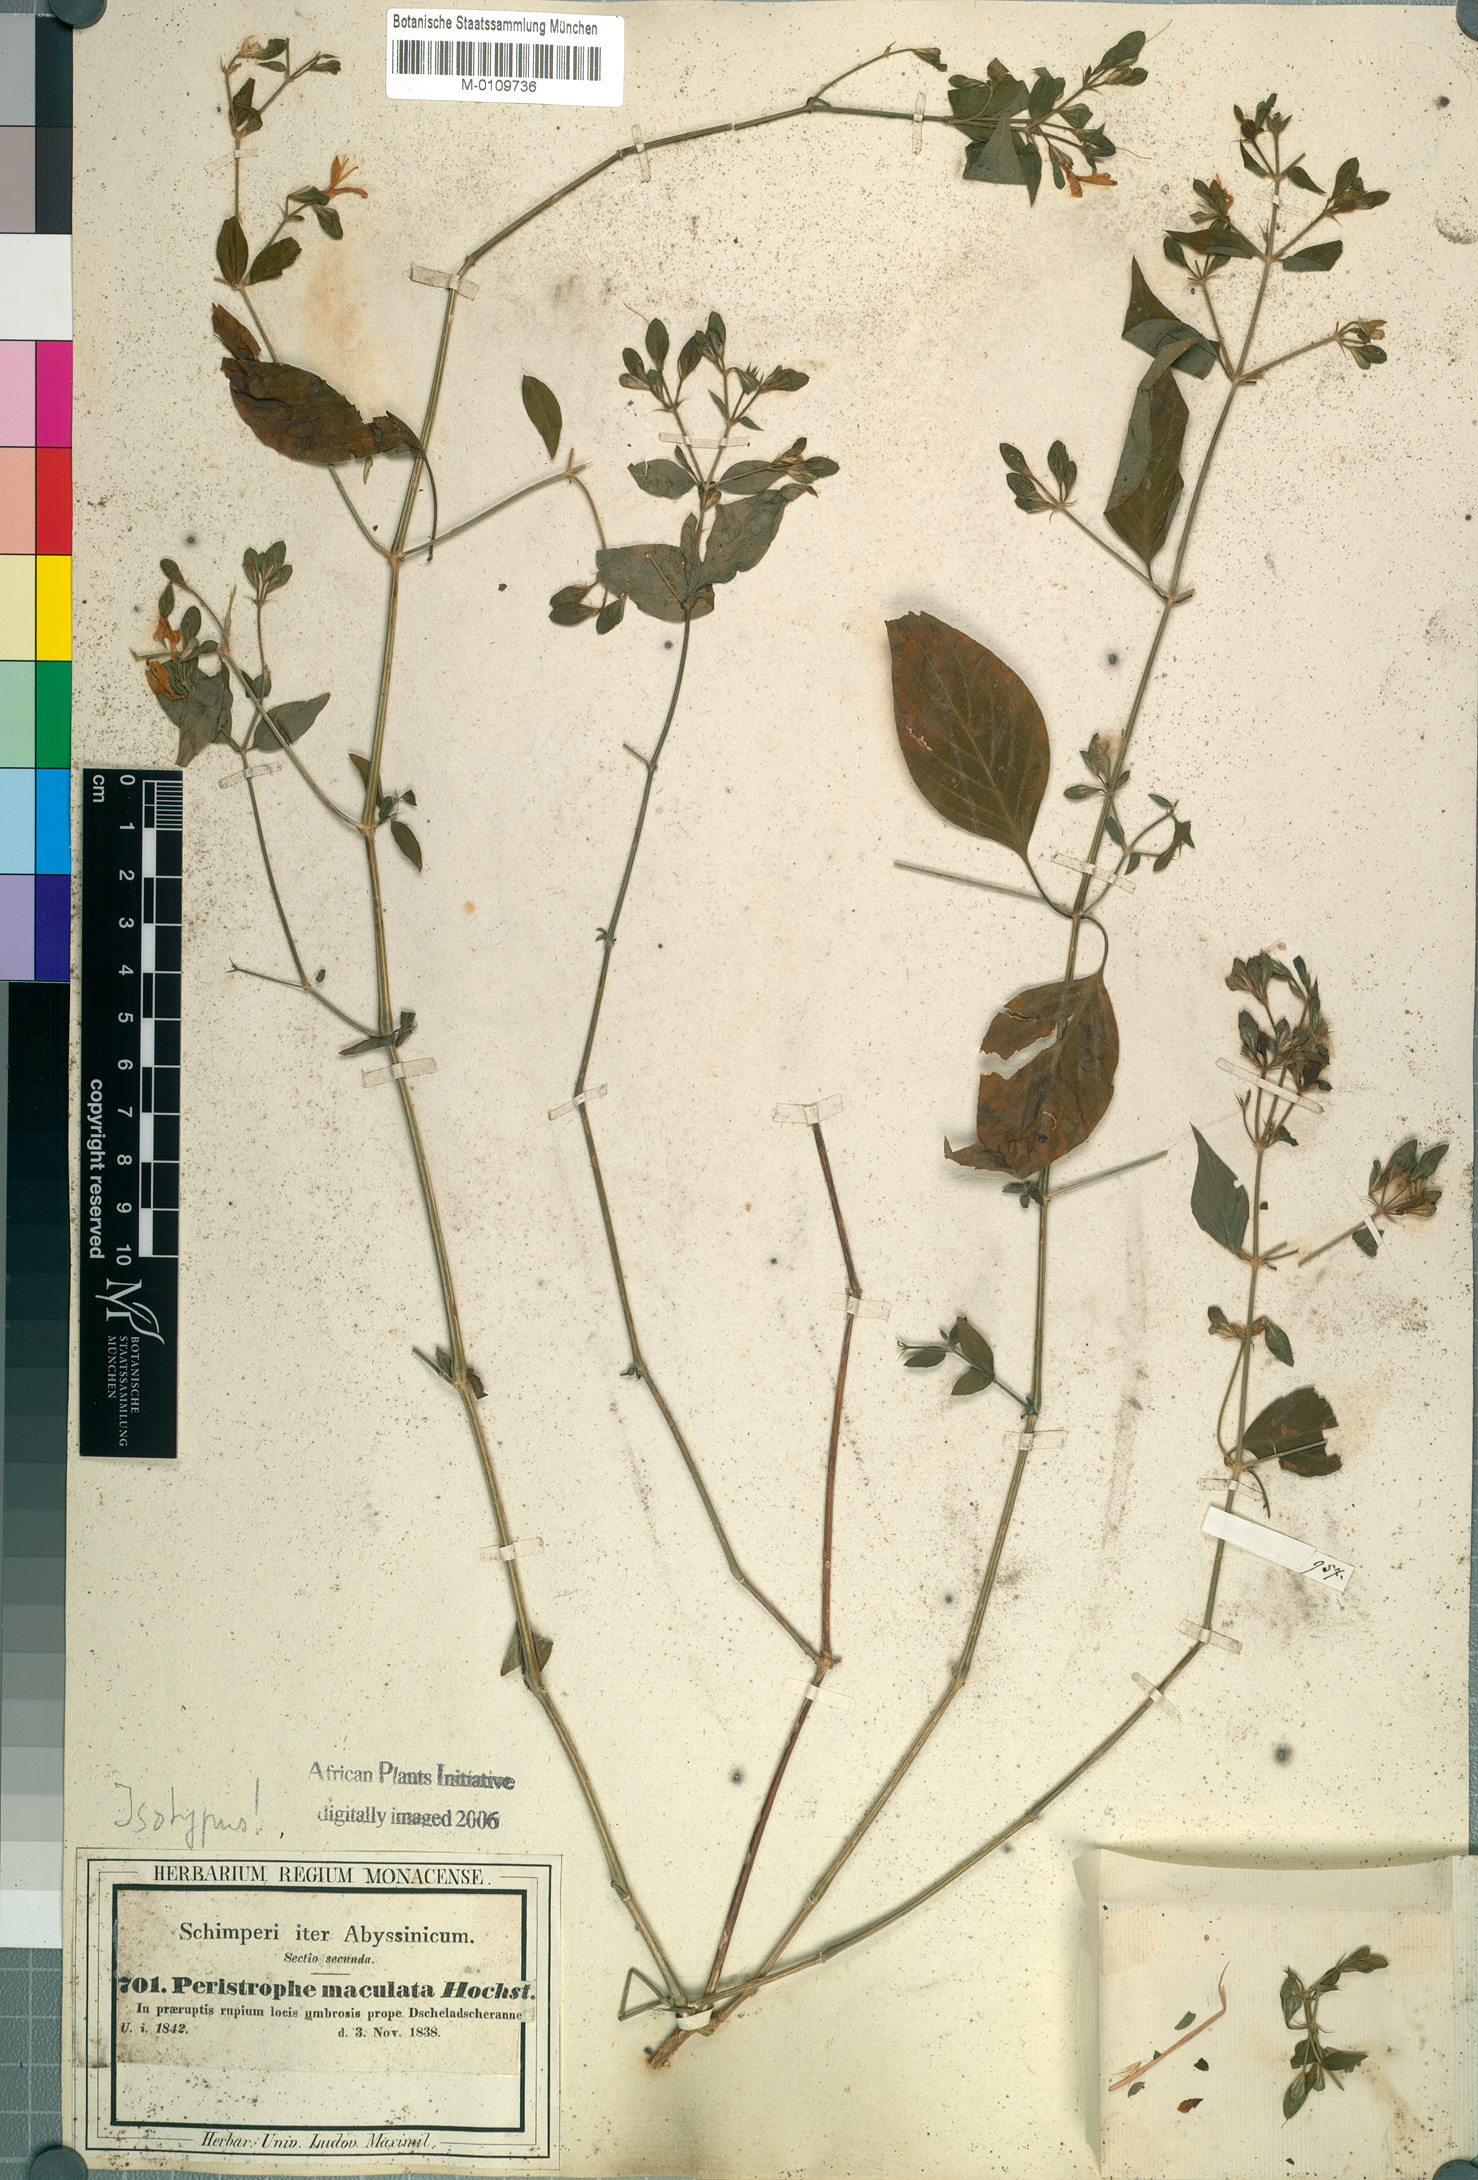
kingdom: Plantae
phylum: Tracheophyta
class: Magnoliopsida
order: Lamiales
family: Acanthaceae
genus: Dicliptera
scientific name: Dicliptera maculata
